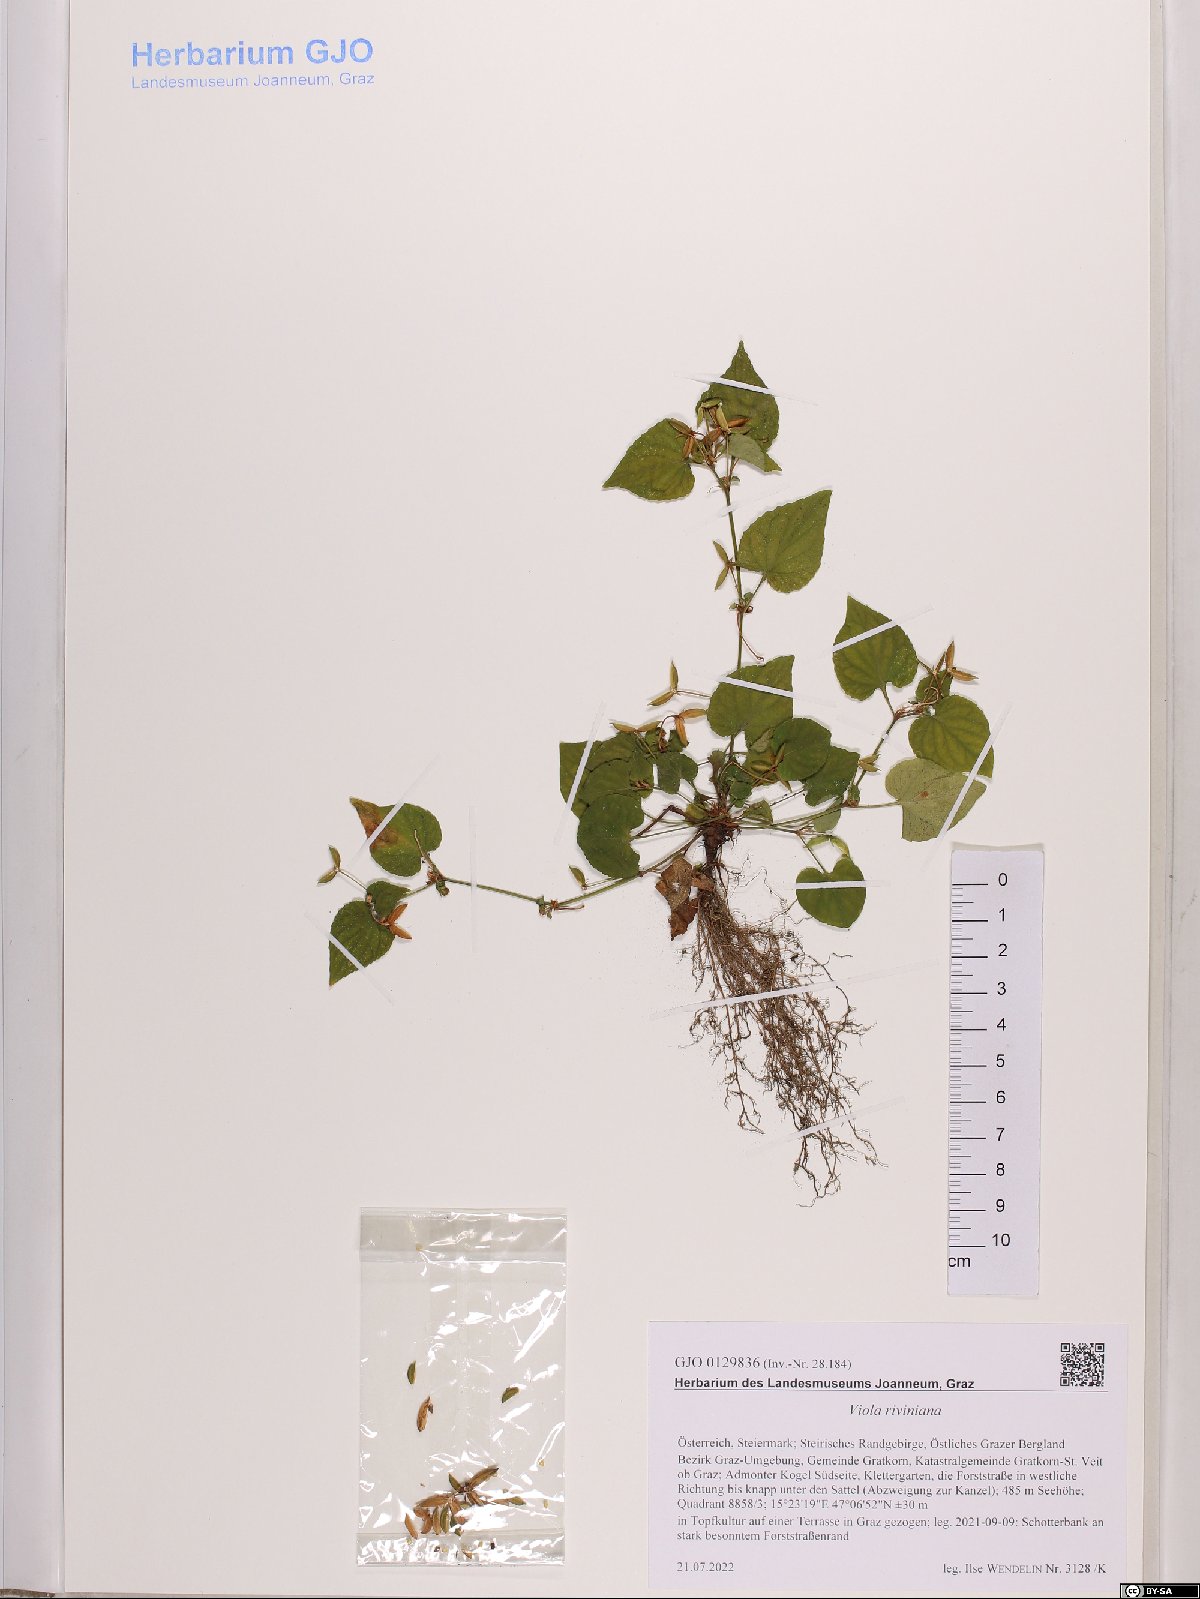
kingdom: Plantae
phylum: Tracheophyta
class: Magnoliopsida
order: Malpighiales
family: Violaceae
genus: Viola
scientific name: Viola riviniana
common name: Common dog-violet
